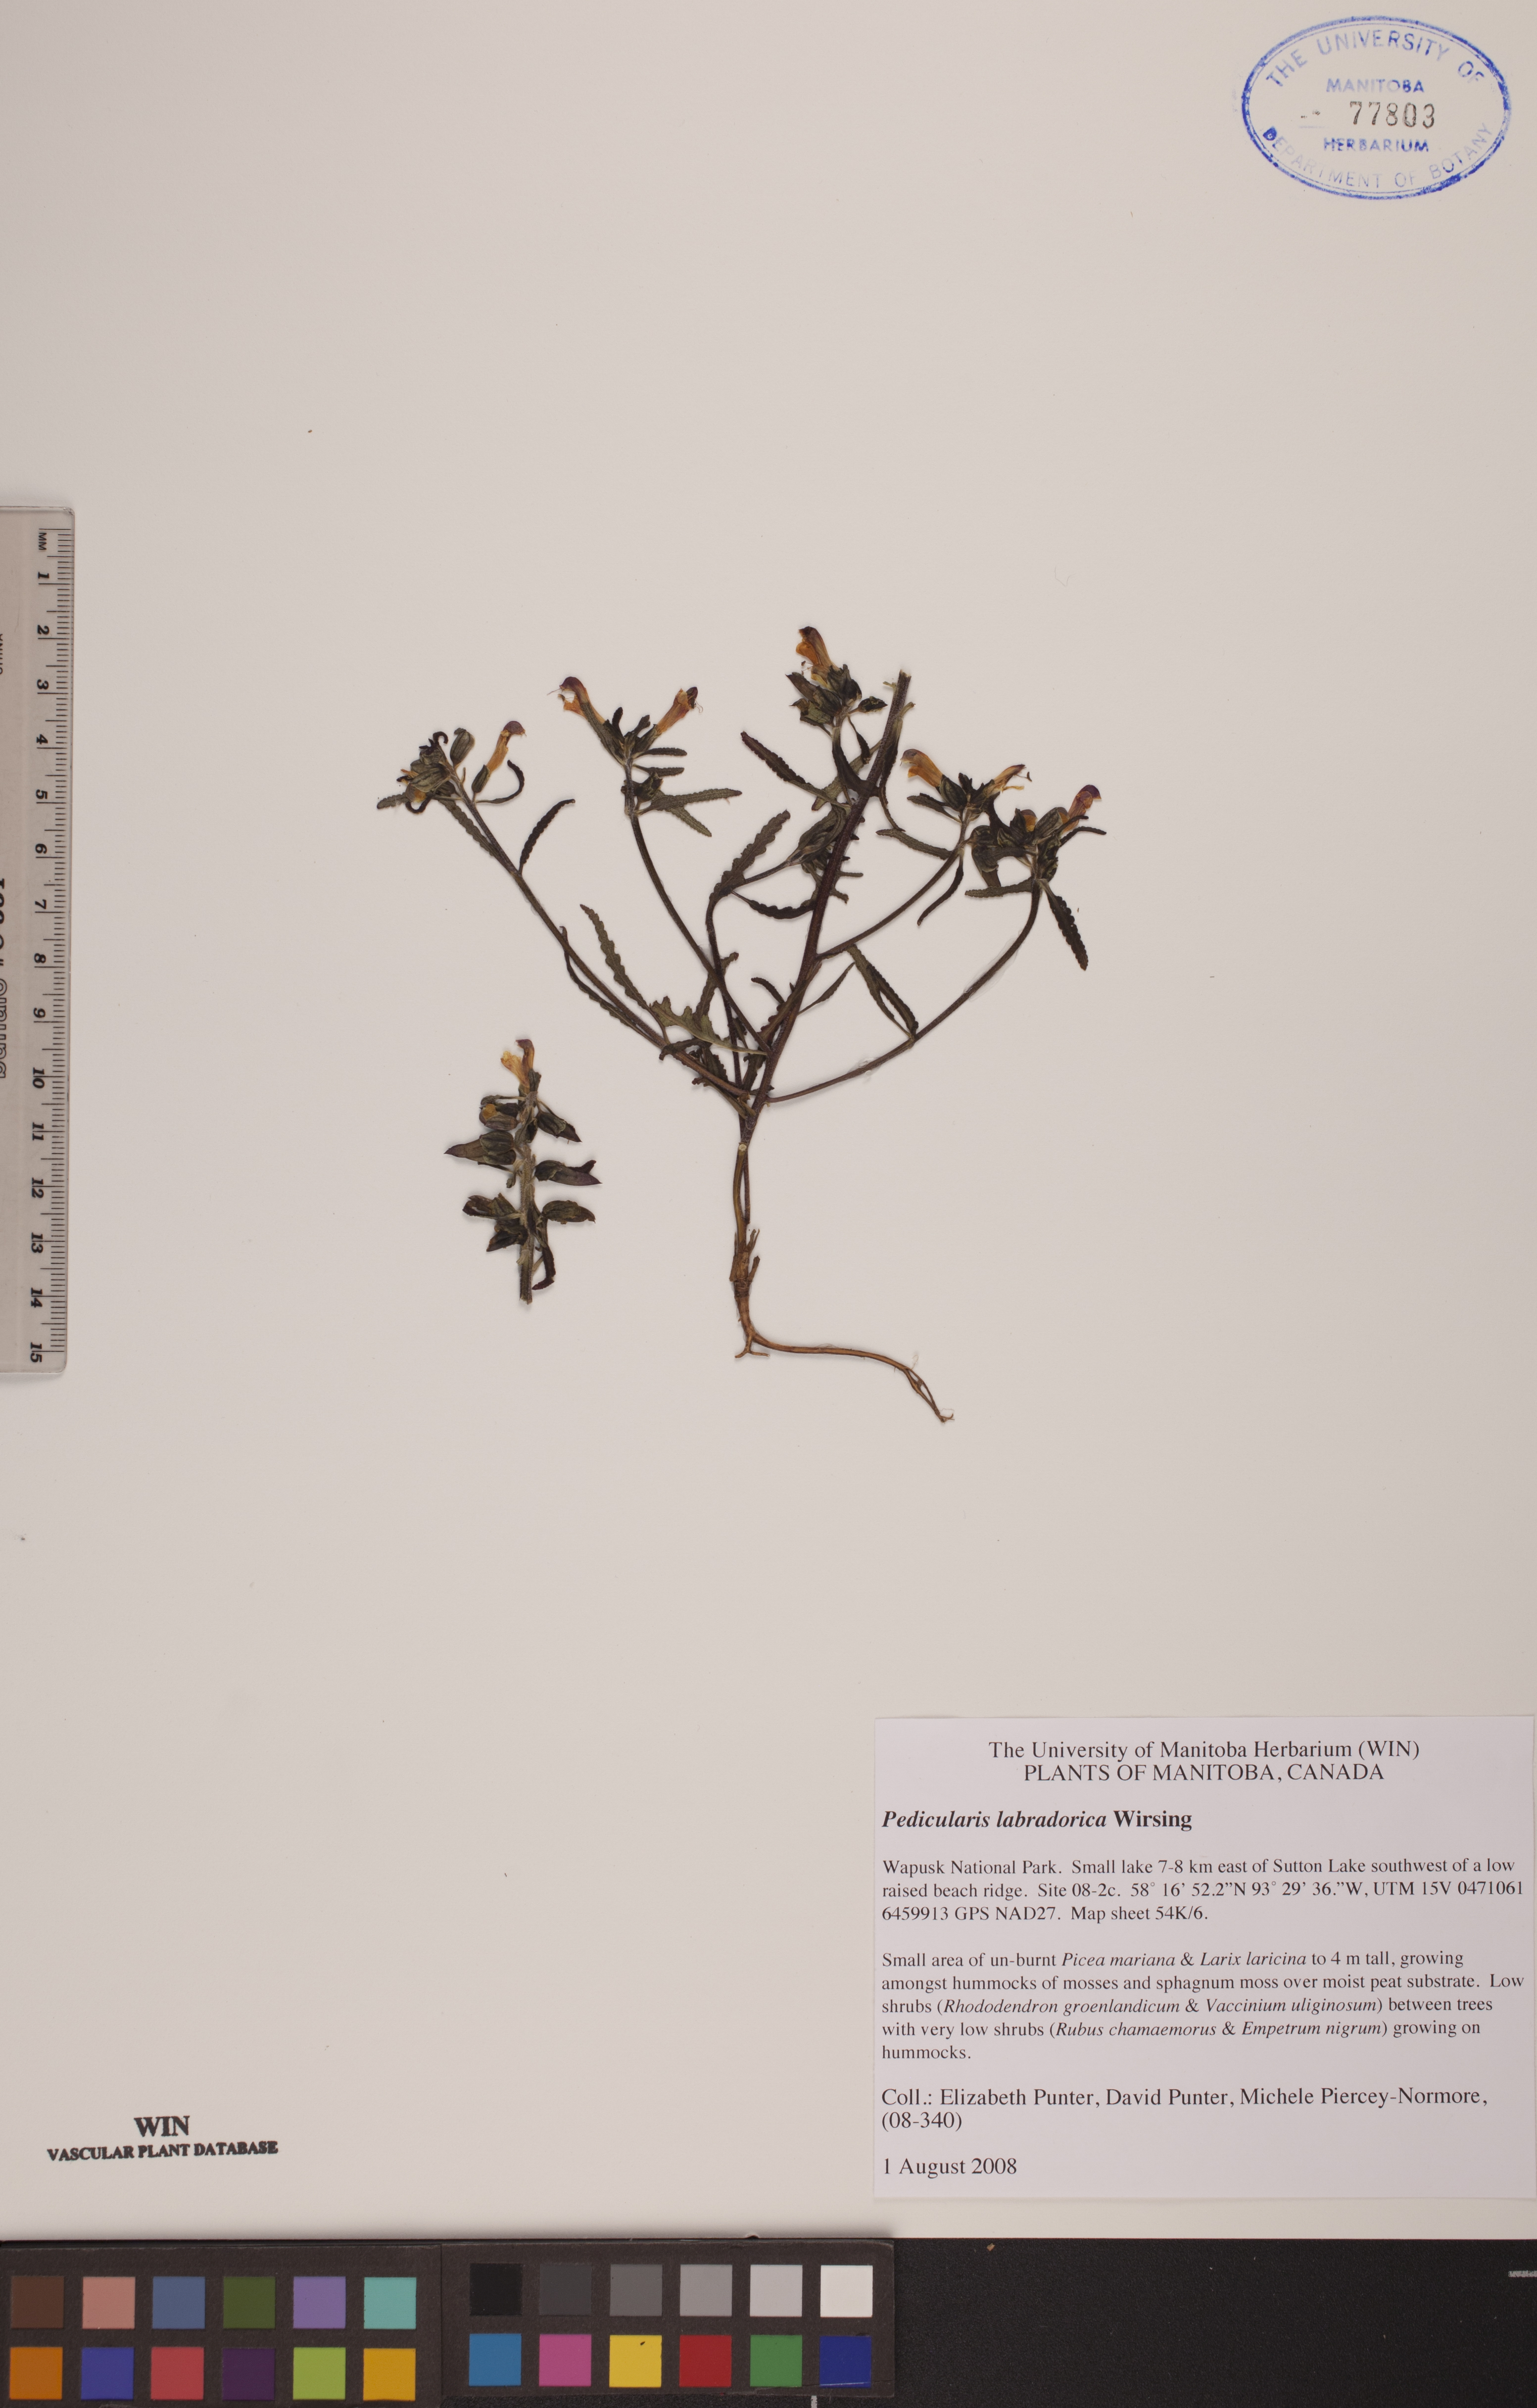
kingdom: Plantae
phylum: Tracheophyta
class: Magnoliopsida
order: Lamiales
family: Orobanchaceae
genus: Pedicularis
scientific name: Pedicularis labradorica
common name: Labrador lousewort
